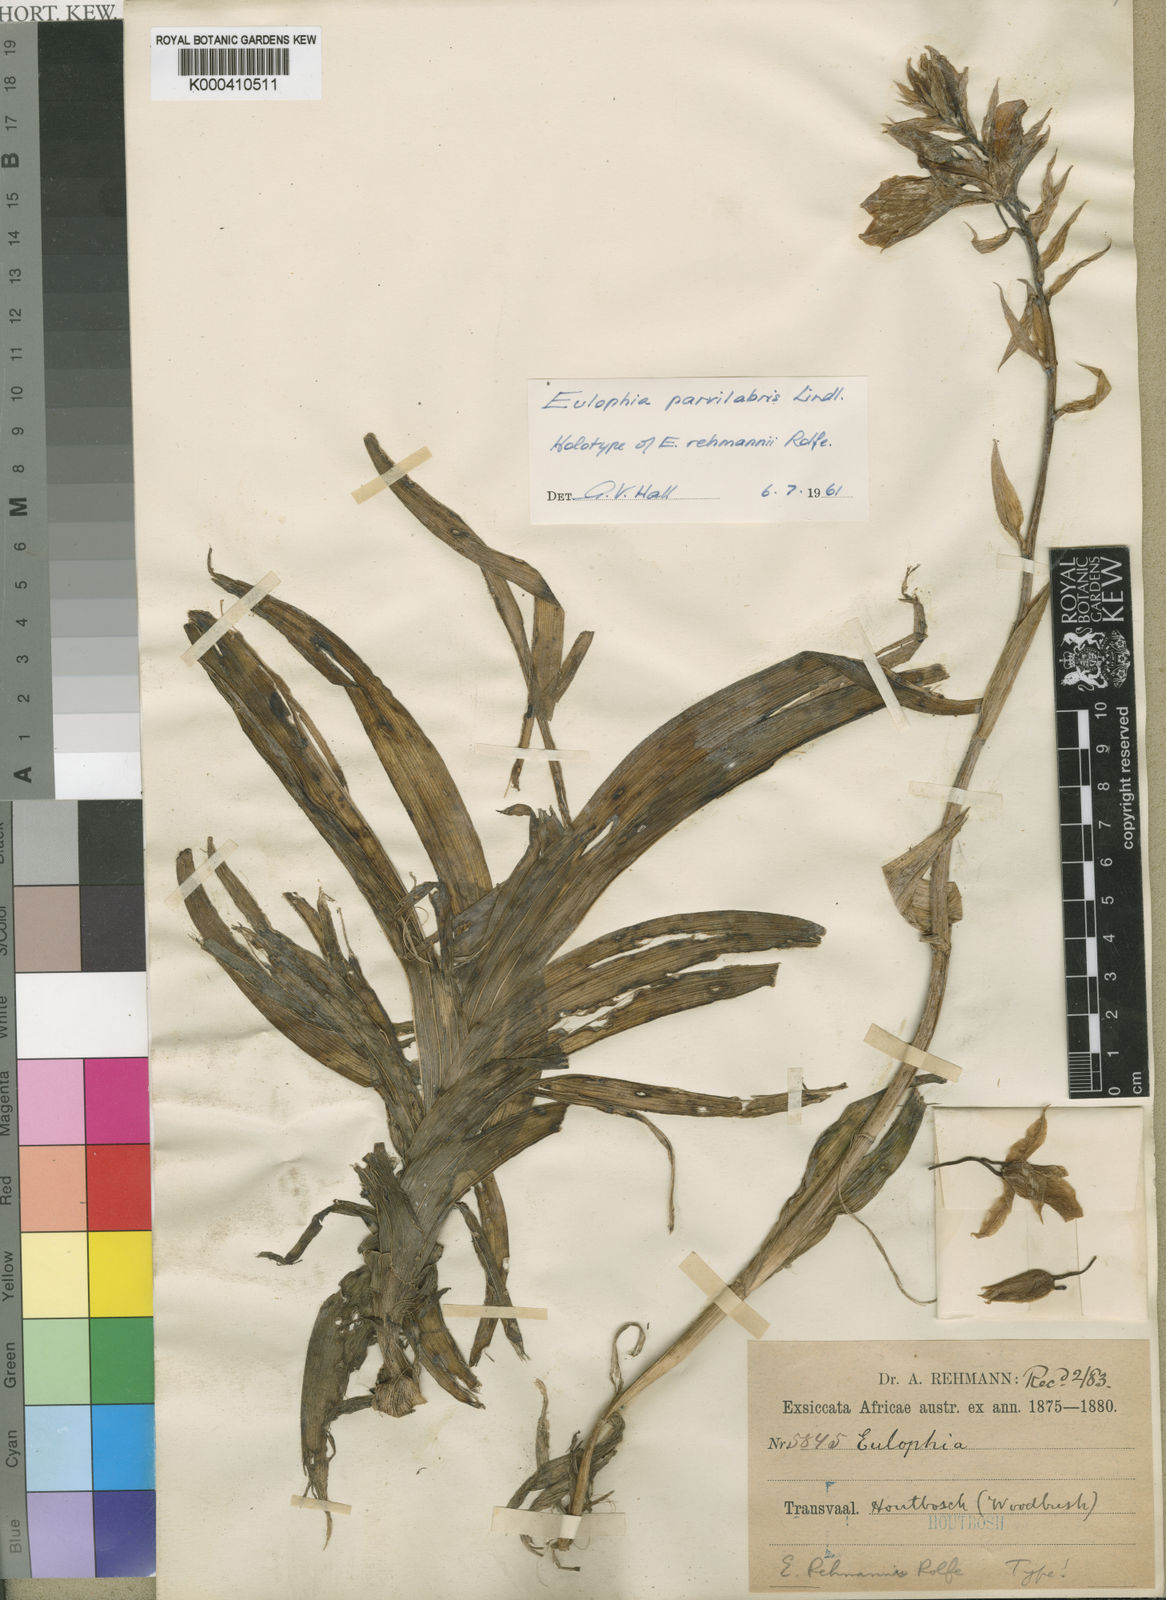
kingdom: Plantae
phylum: Tracheophyta
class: Liliopsida
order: Asparagales
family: Orchidaceae
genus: Eulophia
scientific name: Eulophia parvilabris
